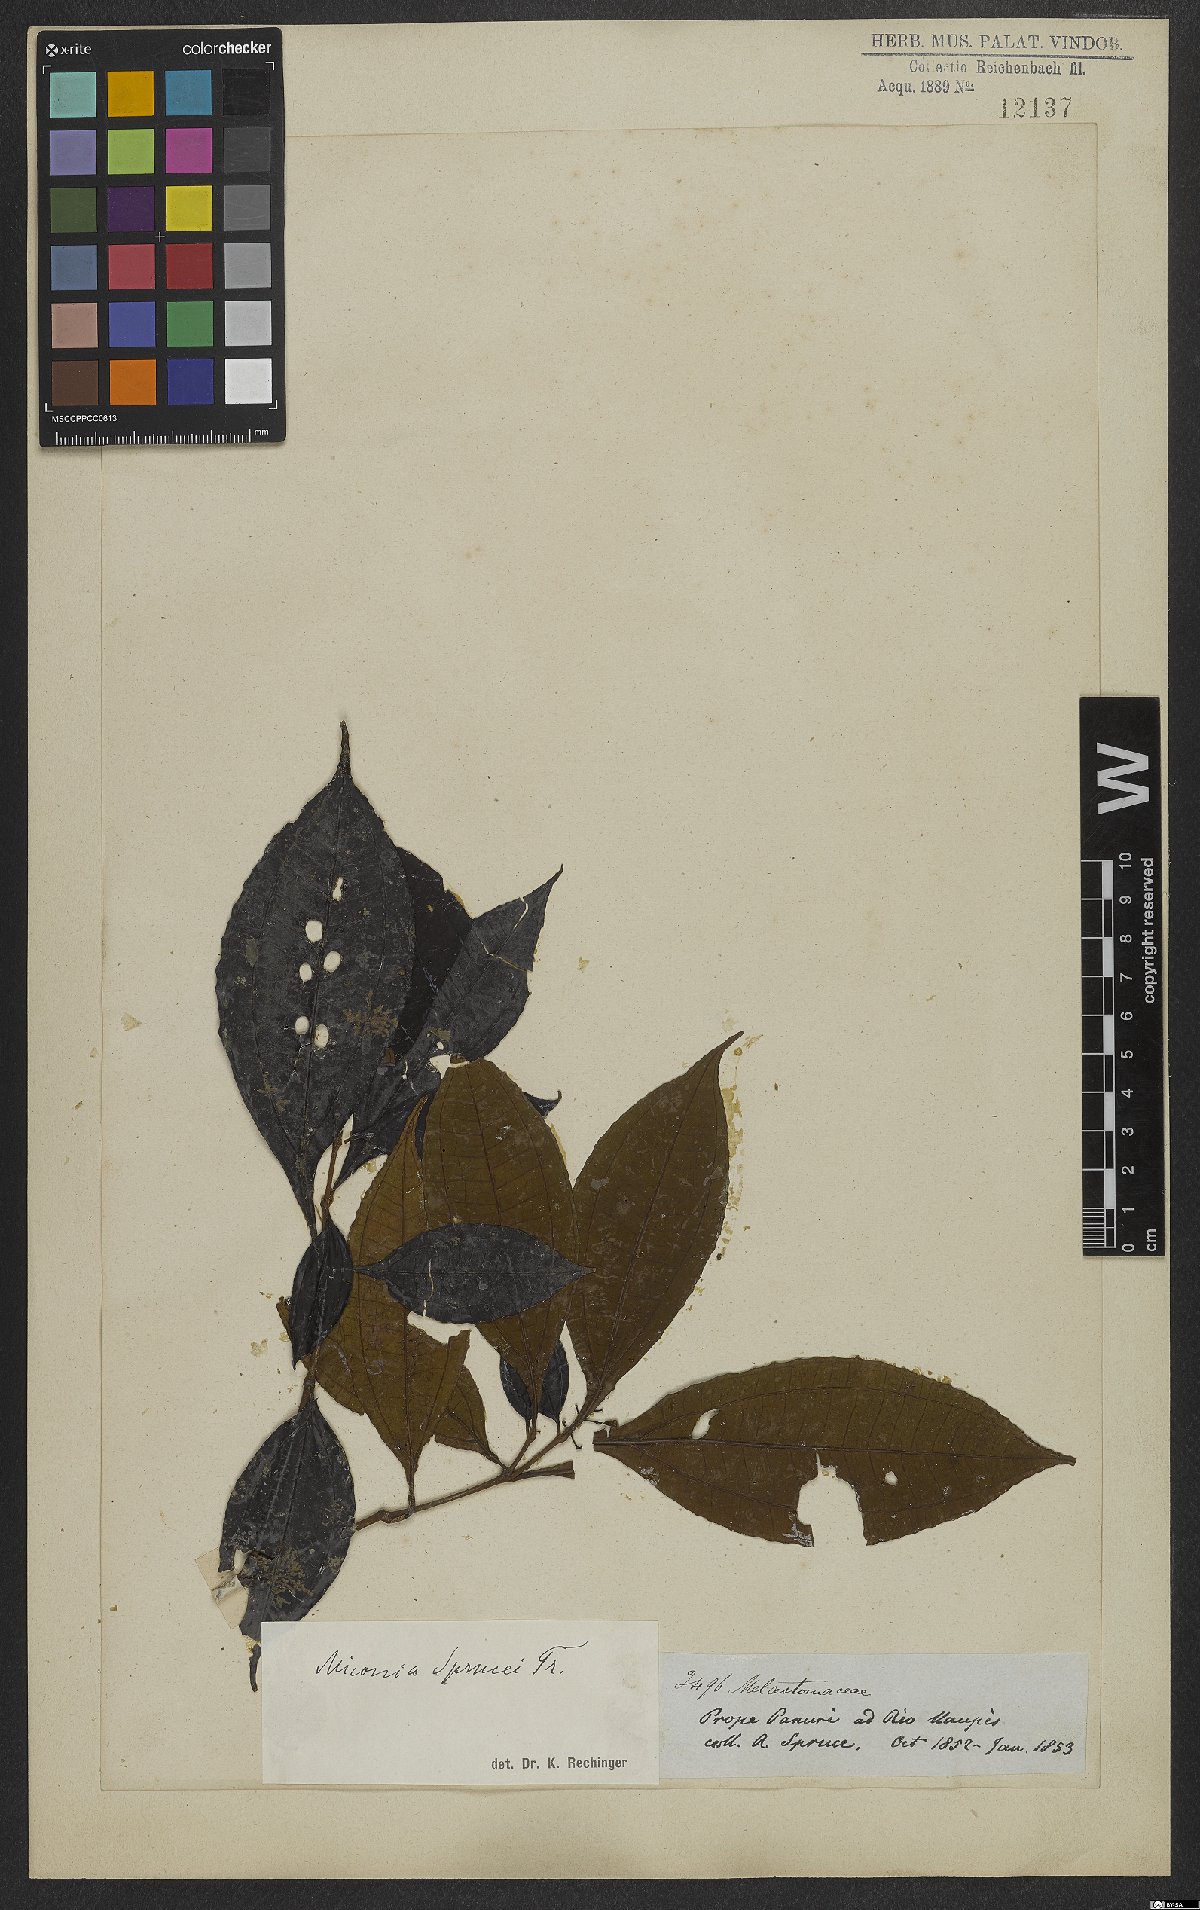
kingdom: Plantae
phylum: Tracheophyta
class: Magnoliopsida
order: Myrtales
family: Melastomataceae
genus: Miconia
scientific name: Miconia sprucei
